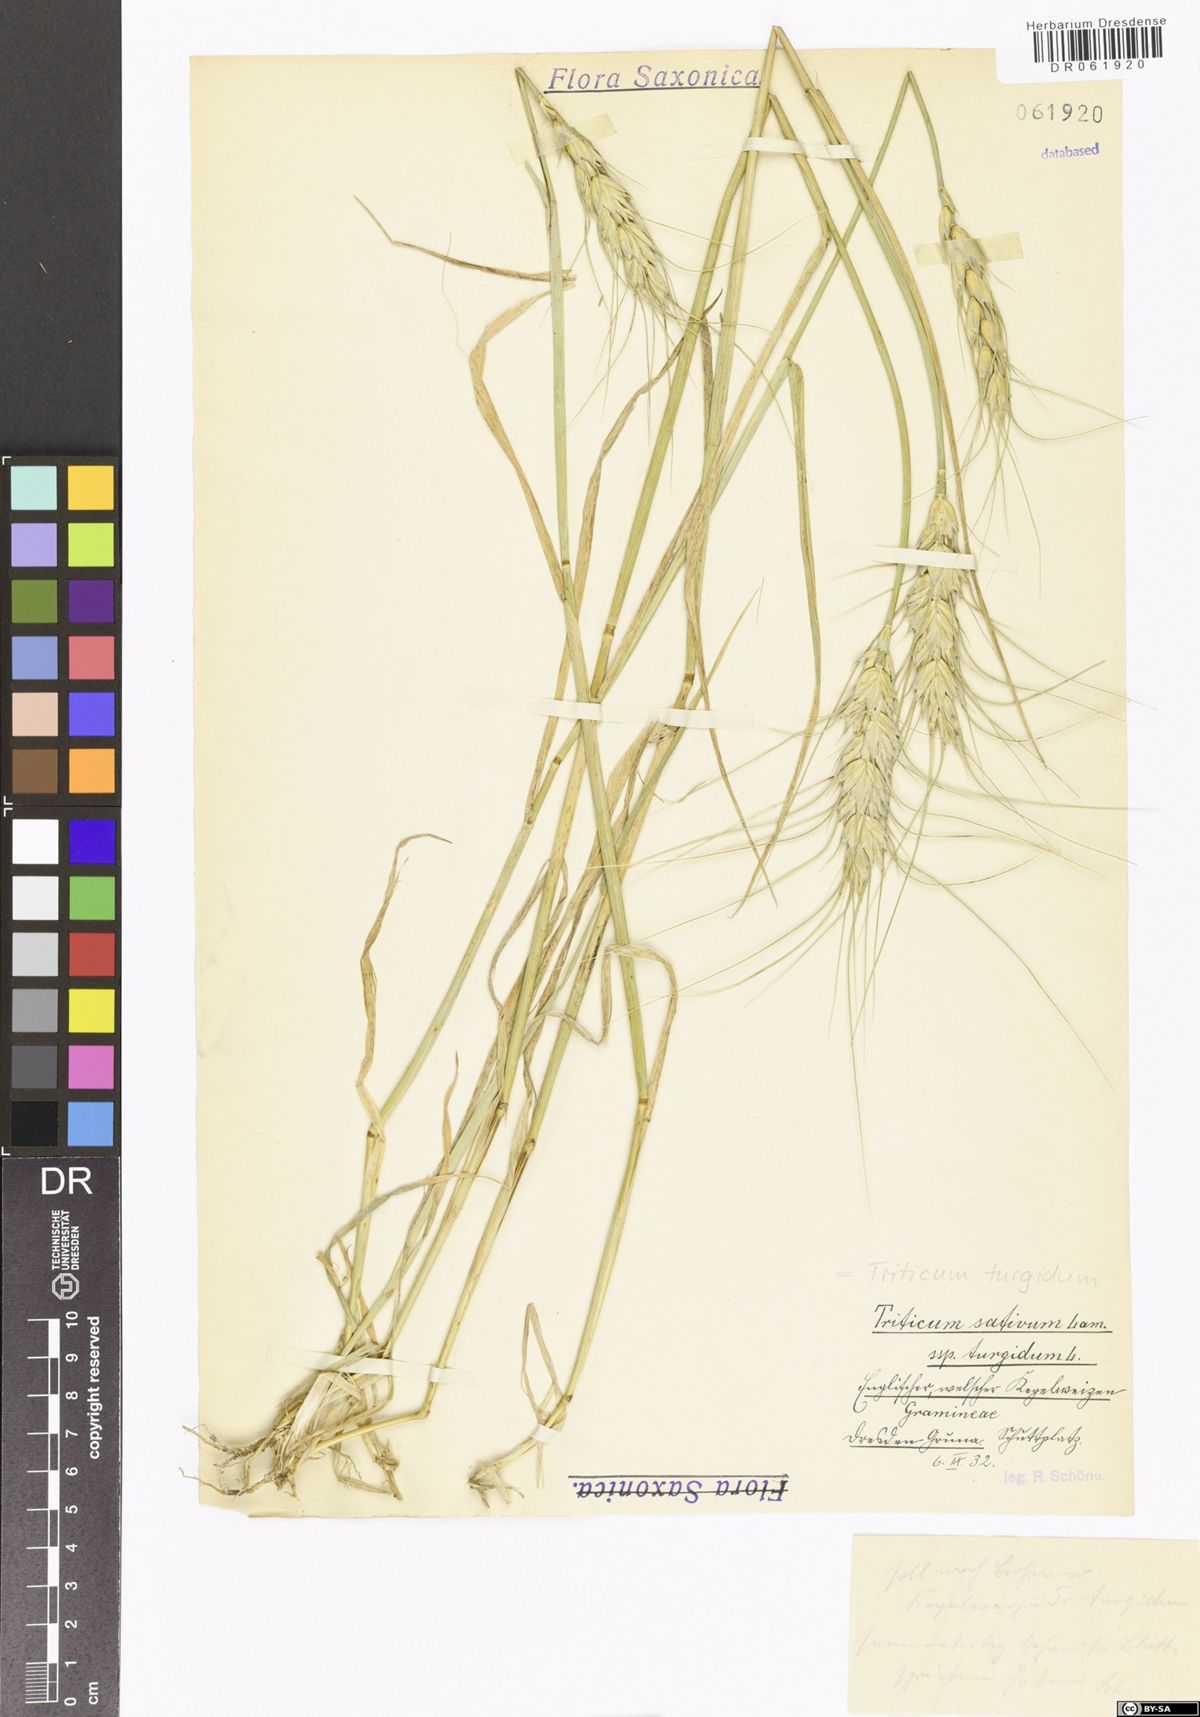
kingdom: Plantae
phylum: Tracheophyta
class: Liliopsida
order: Poales
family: Poaceae
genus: Triticum
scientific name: Triticum turgidum
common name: Rivet wheat
